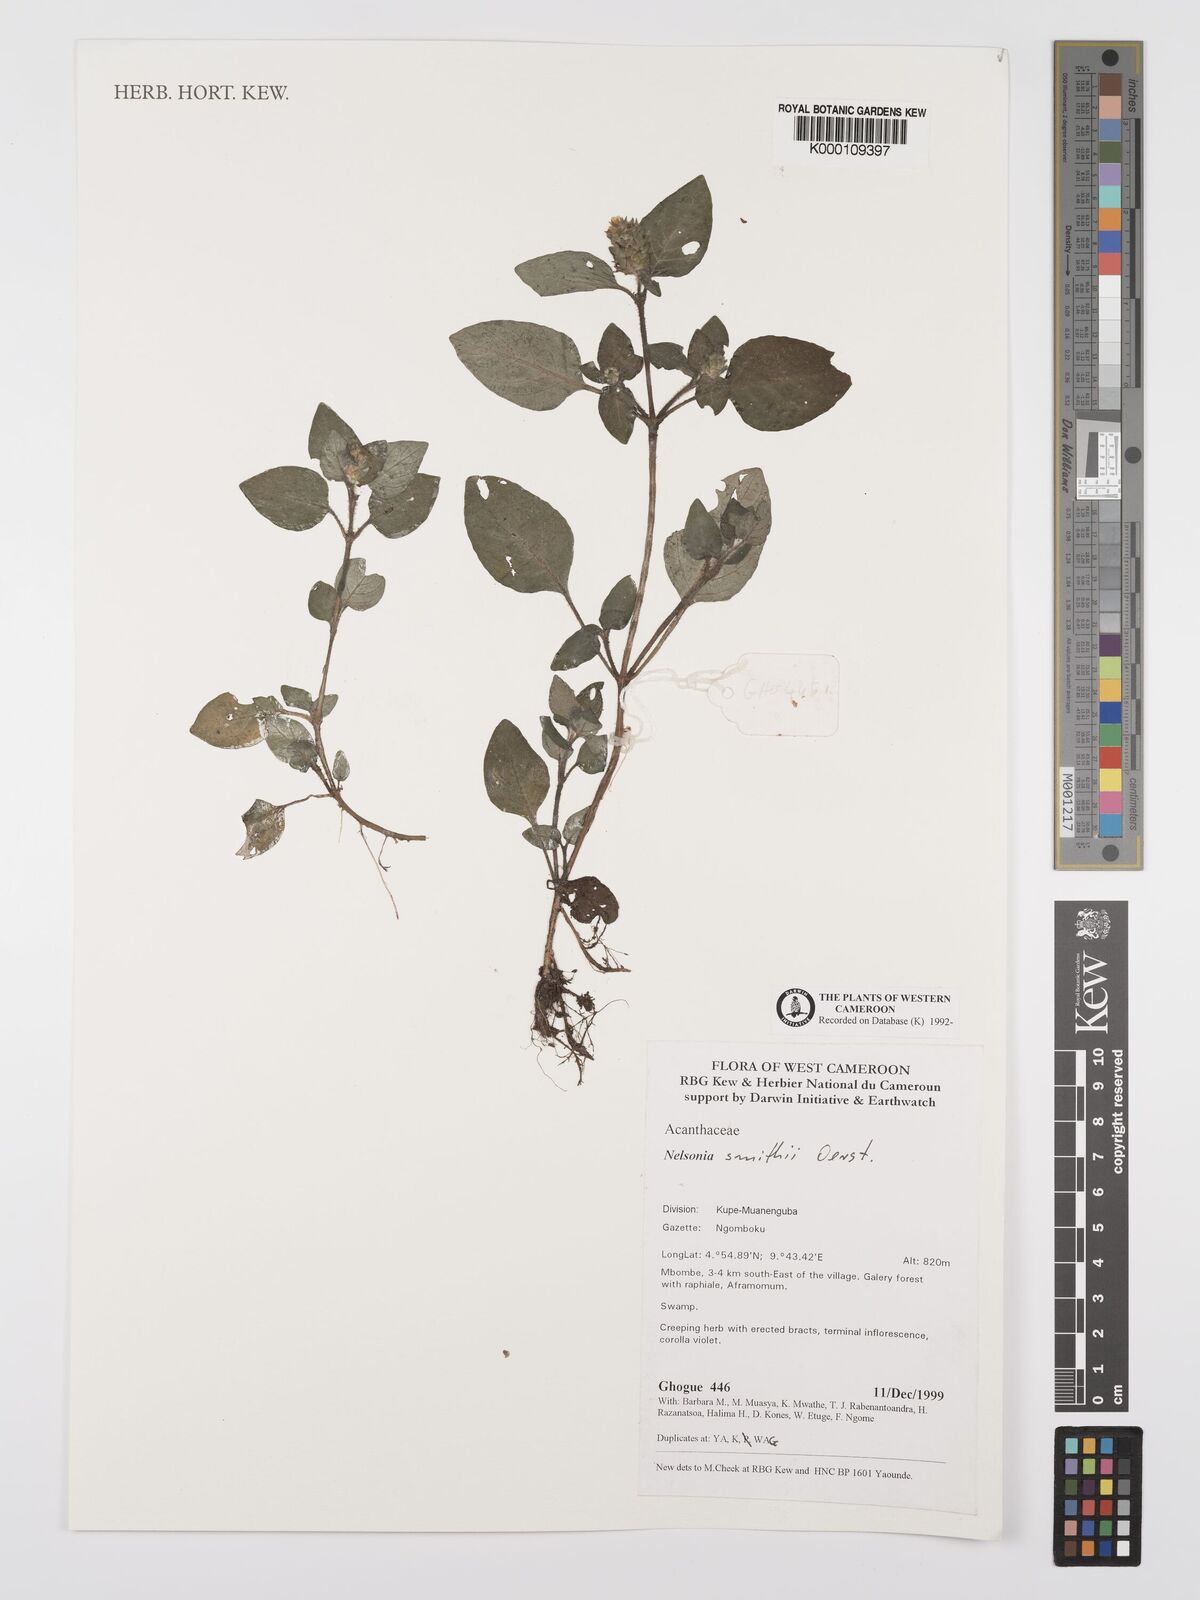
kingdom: Plantae
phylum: Tracheophyta
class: Magnoliopsida
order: Lamiales
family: Acanthaceae
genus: Nelsonia
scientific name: Nelsonia smithii
